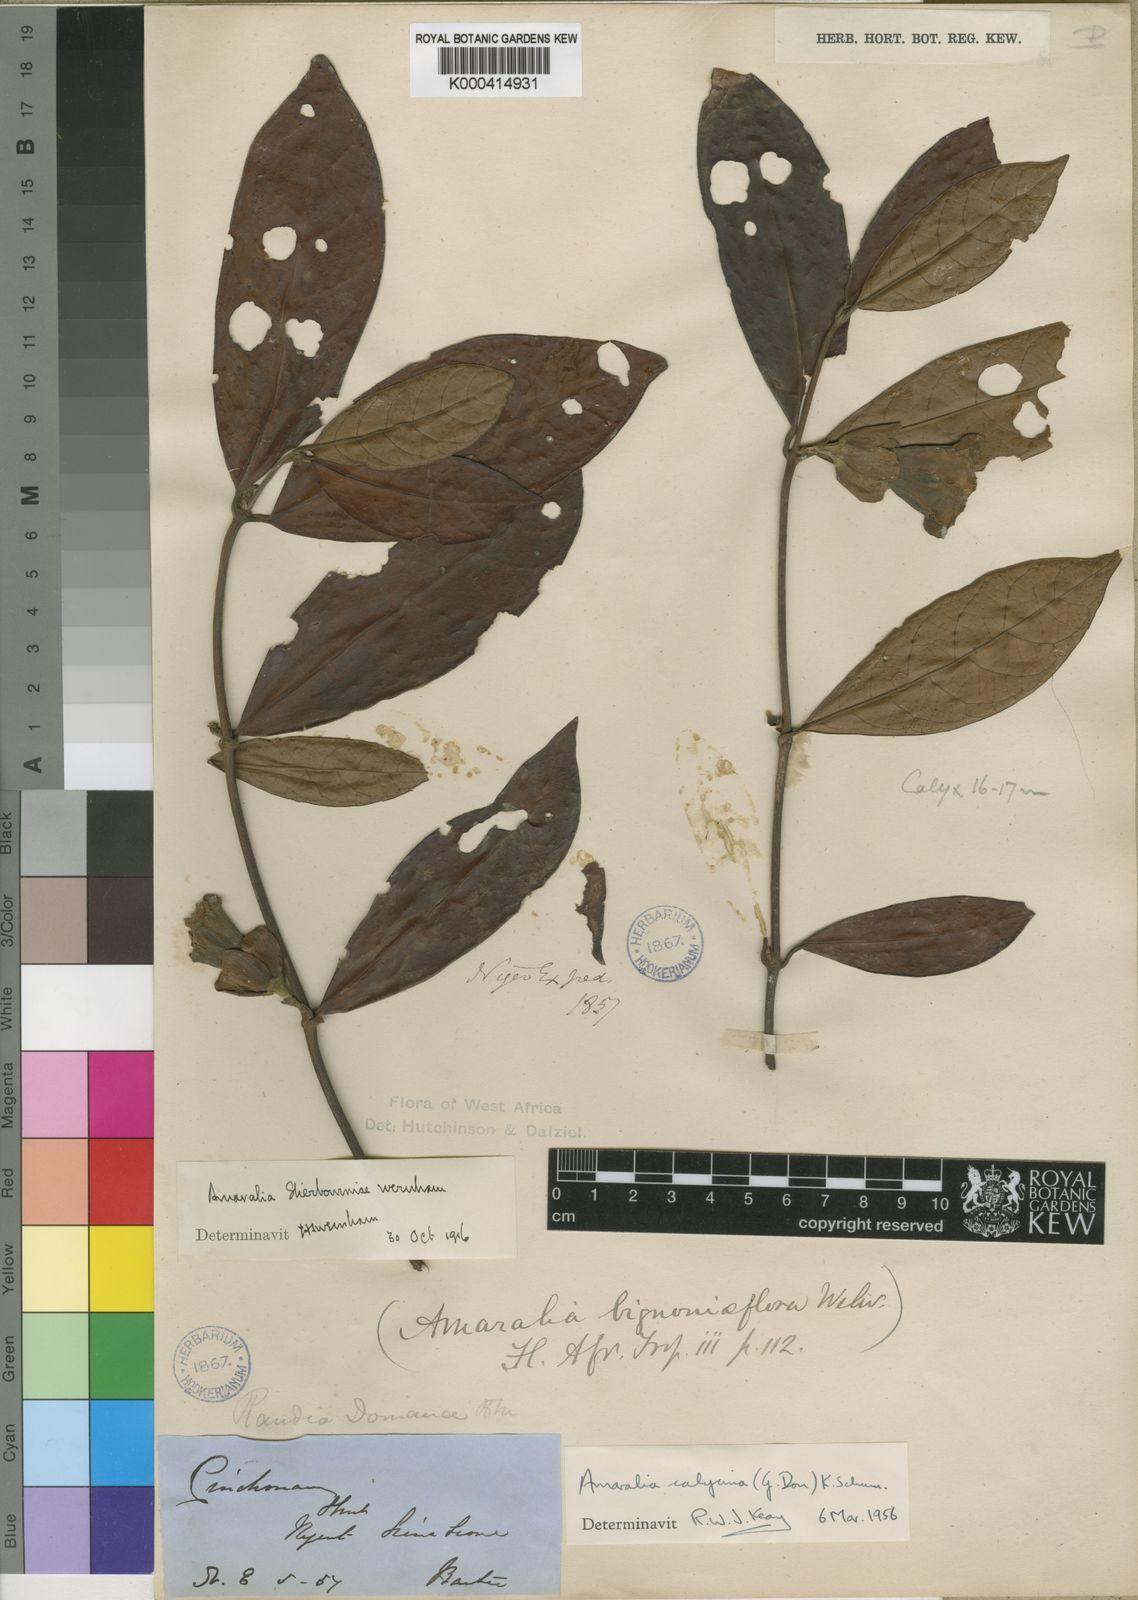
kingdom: Plantae
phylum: Tracheophyta
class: Magnoliopsida
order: Gentianales
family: Rubiaceae
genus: Sherbournia
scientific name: Sherbournia calycina
